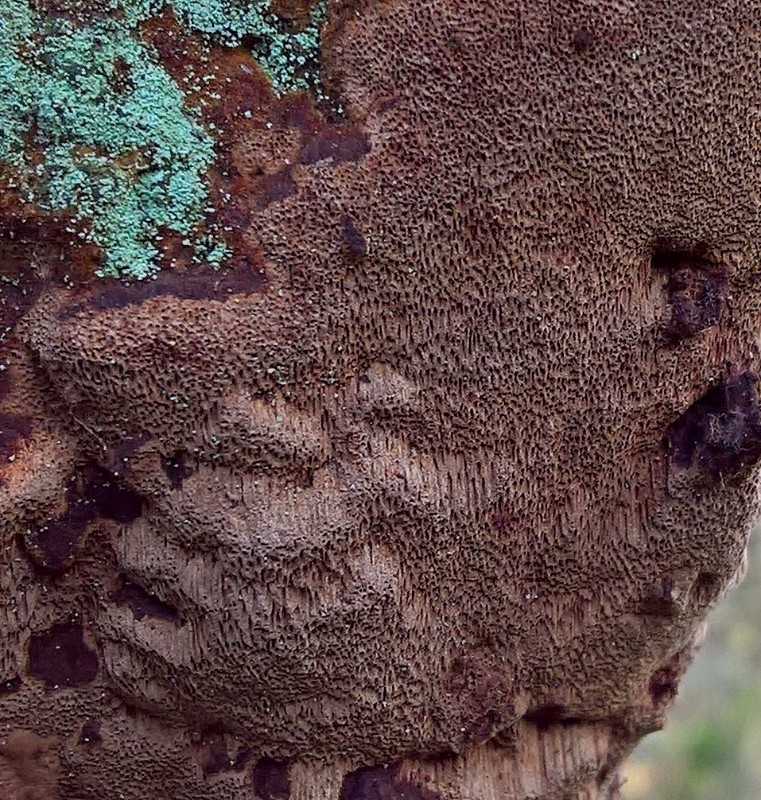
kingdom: Fungi
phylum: Basidiomycota
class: Agaricomycetes
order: Hymenochaetales
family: Hymenochaetaceae
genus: Fuscoporia
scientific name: Fuscoporia ferrea
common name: skorpe-ildporesvamp
